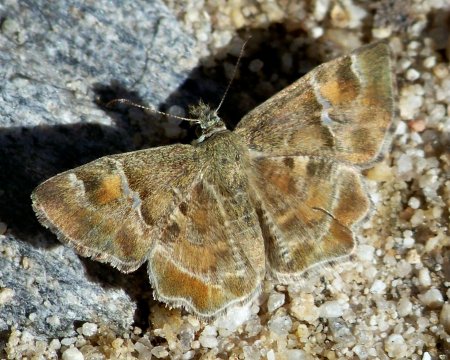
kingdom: Animalia
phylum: Arthropoda
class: Insecta
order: Lepidoptera
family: Hesperiidae
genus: Systasea
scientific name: Systasea zampa
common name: Arizona Powdered-Skipper
